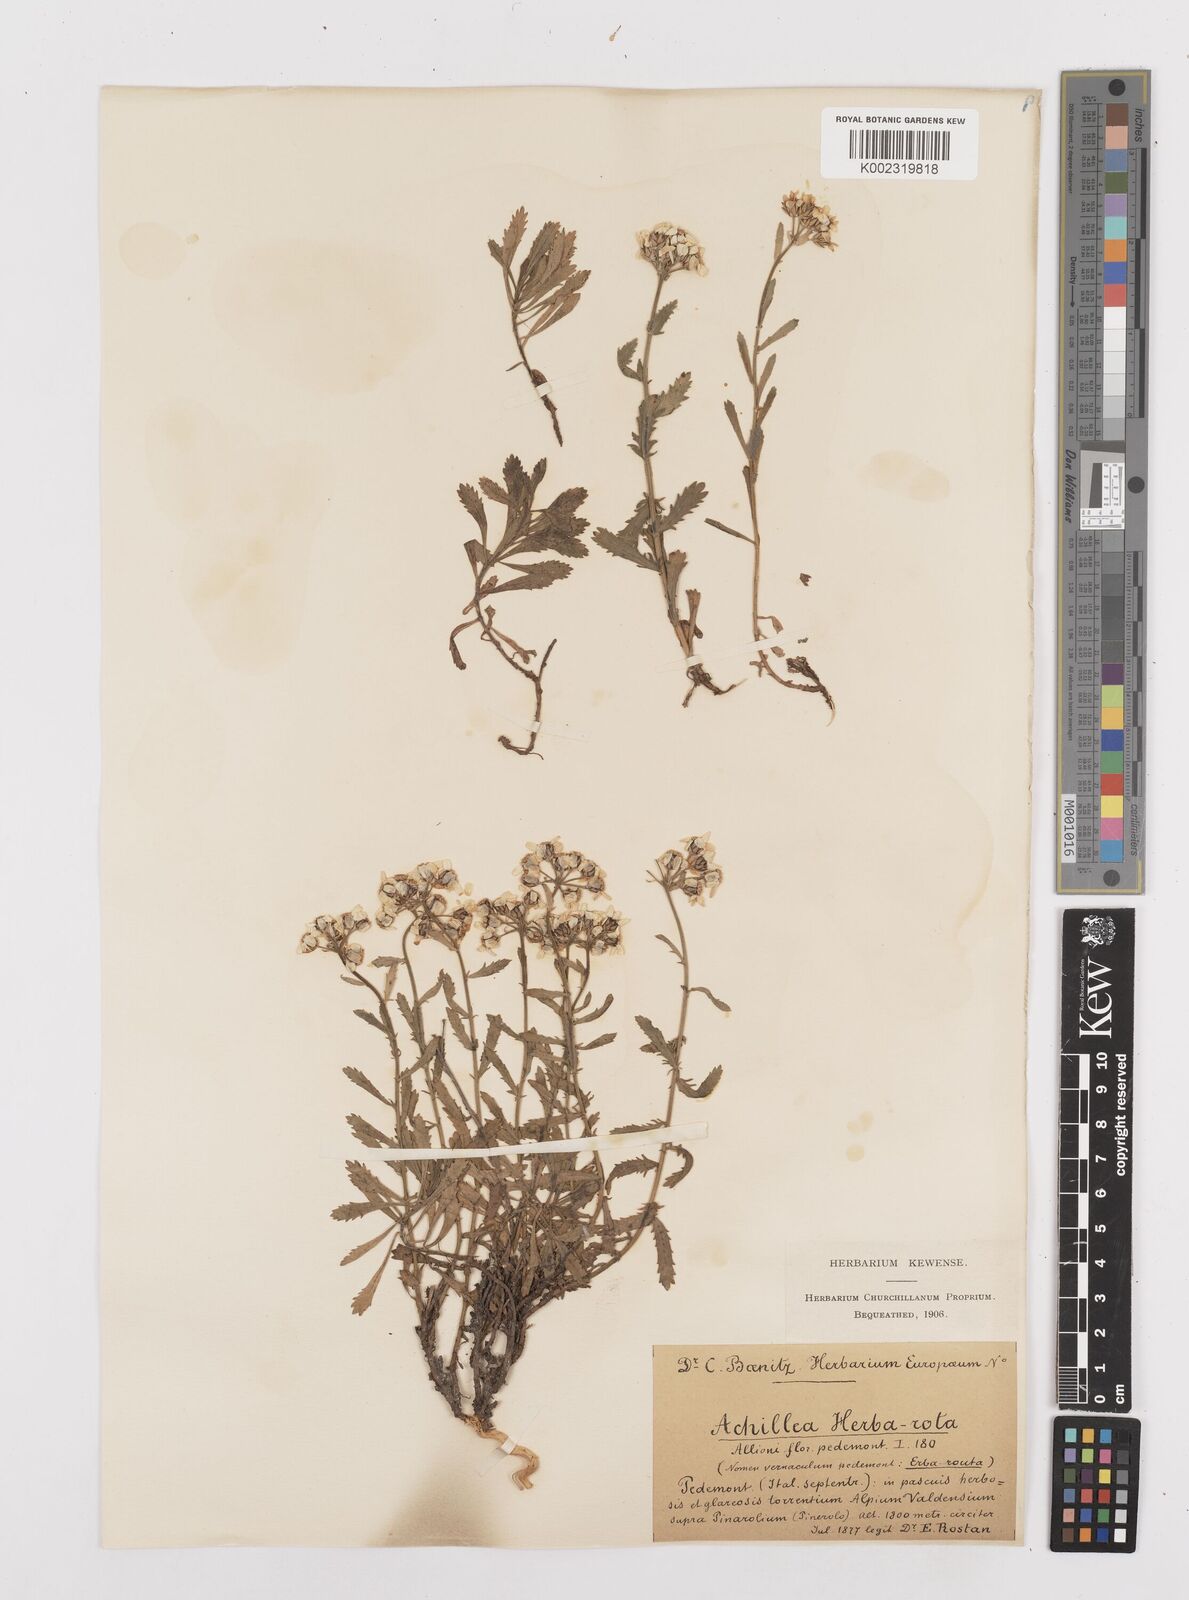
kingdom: Plantae
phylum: Tracheophyta
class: Magnoliopsida
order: Asterales
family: Asteraceae
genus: Achillea
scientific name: Achillea erba-rotta
